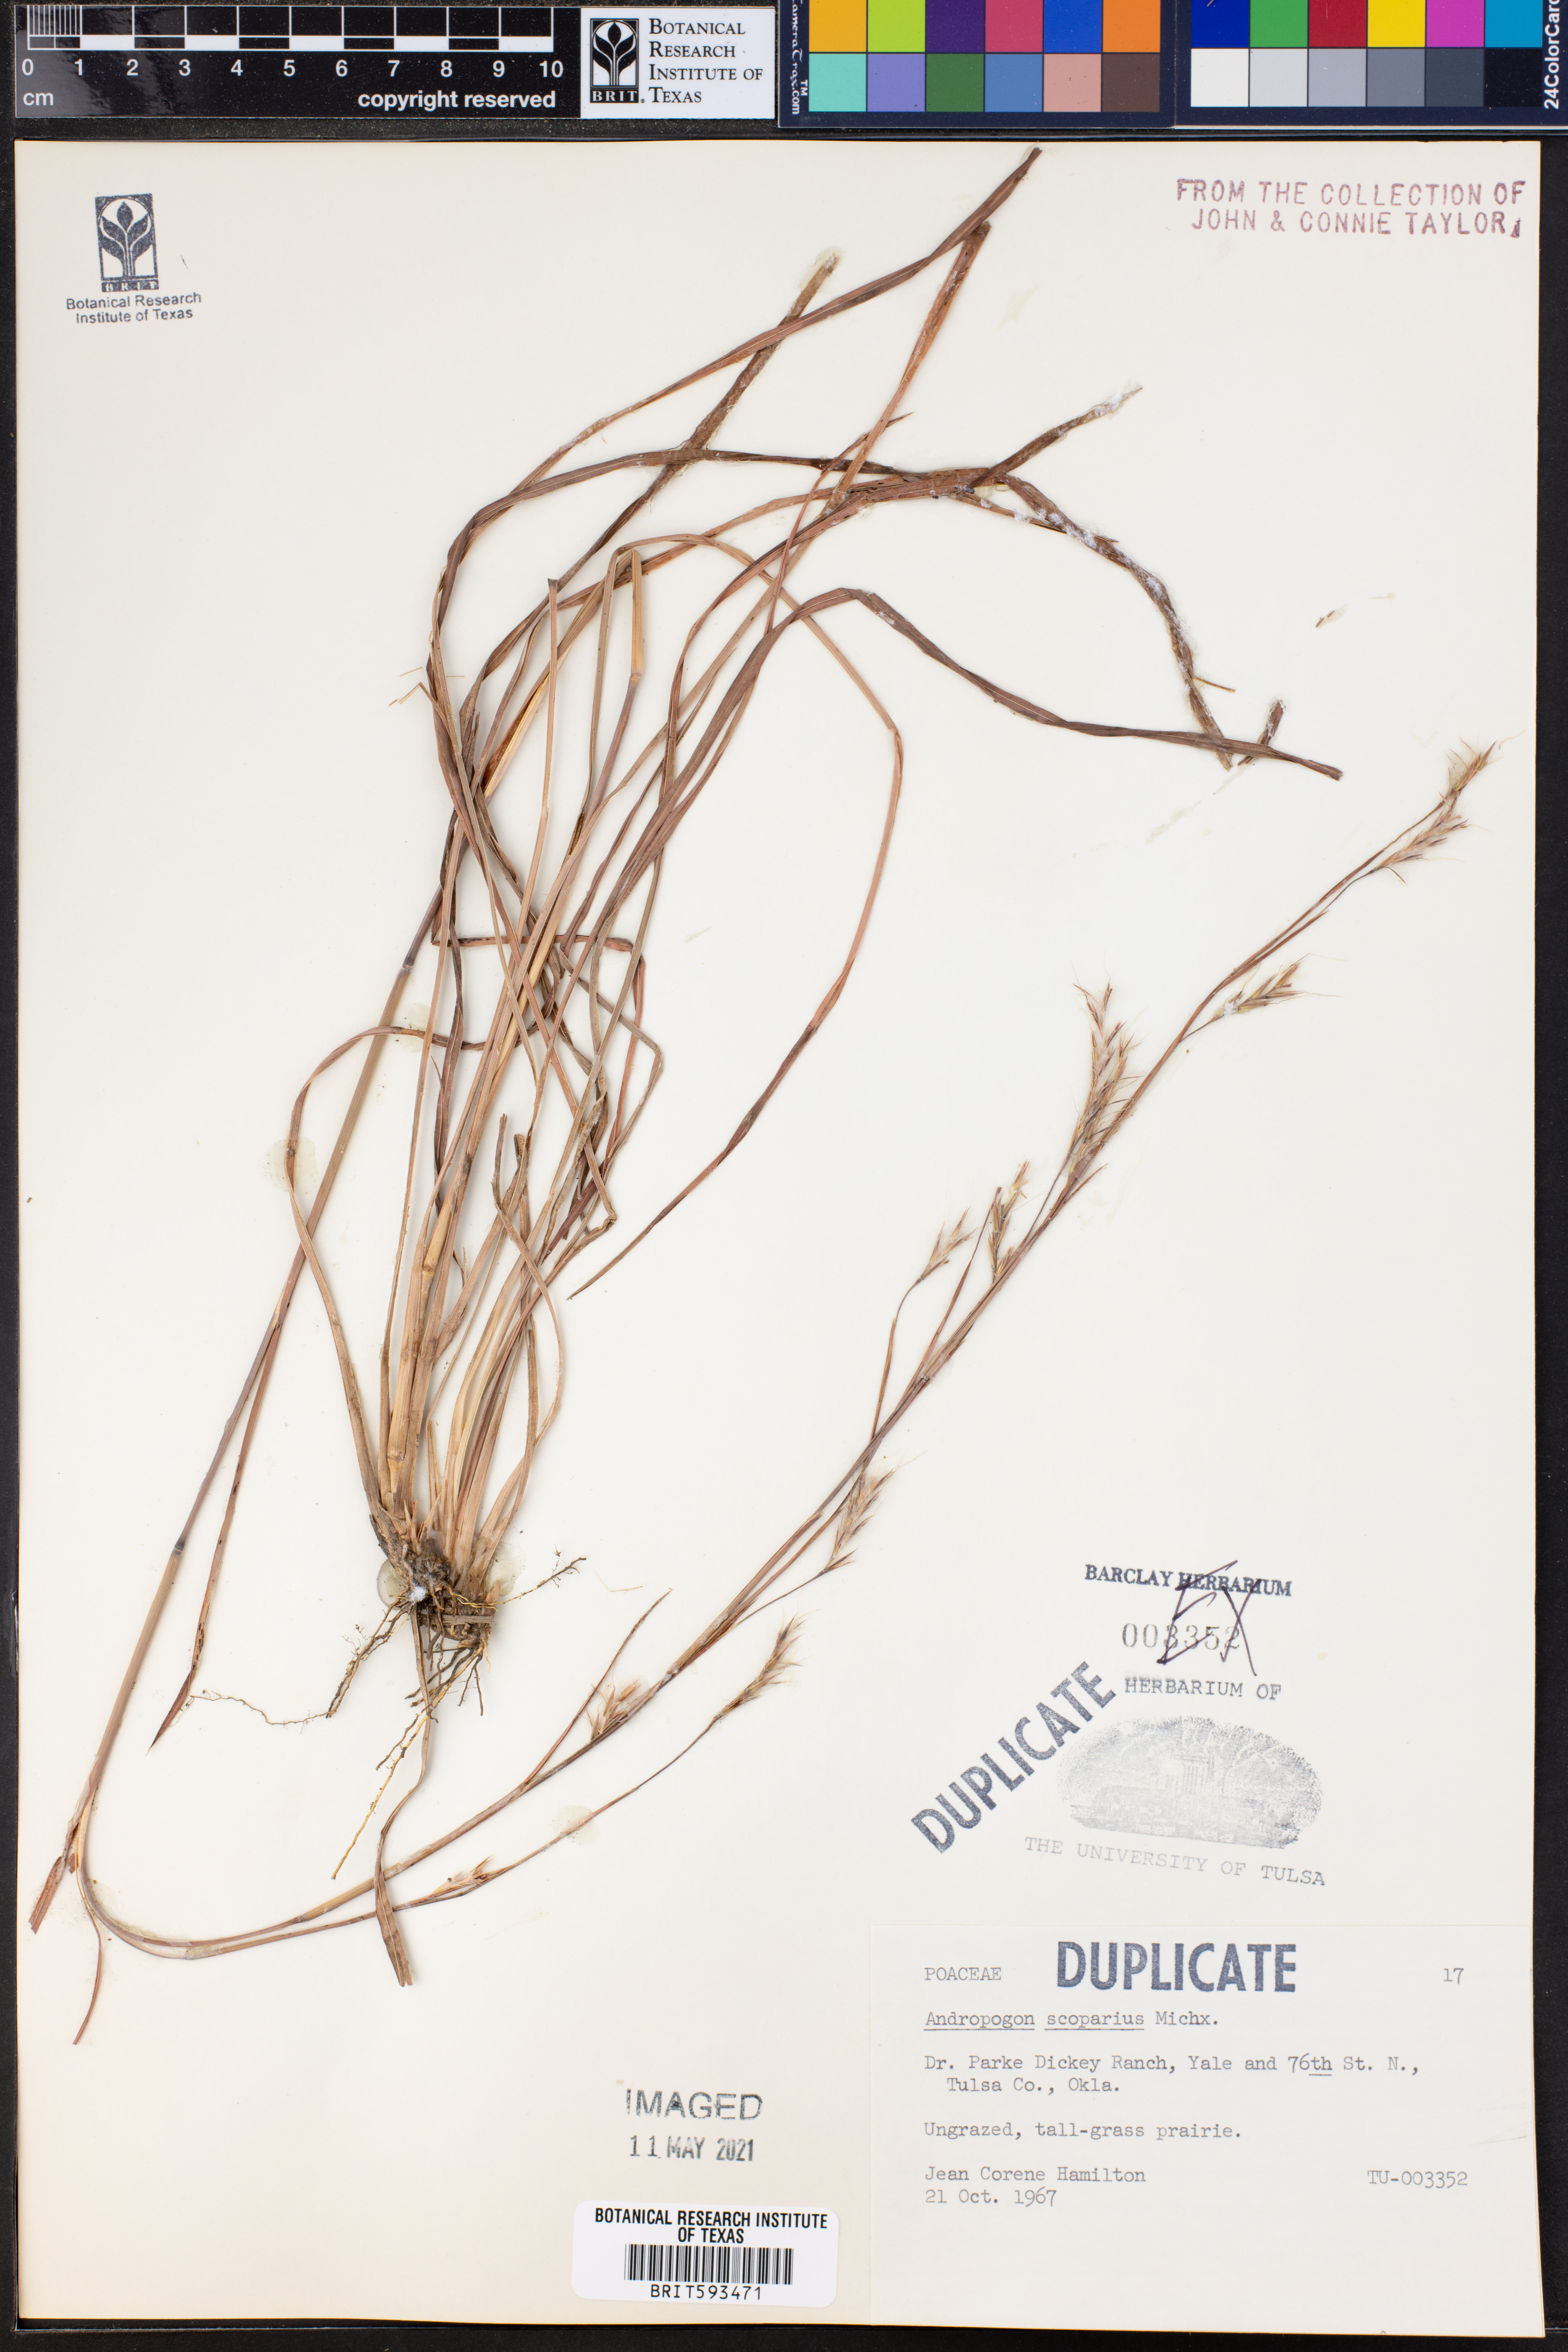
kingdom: Plantae
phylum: Tracheophyta
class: Liliopsida
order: Poales
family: Poaceae
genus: Schizachyrium
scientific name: Schizachyrium scoparium
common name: Little bluestem
